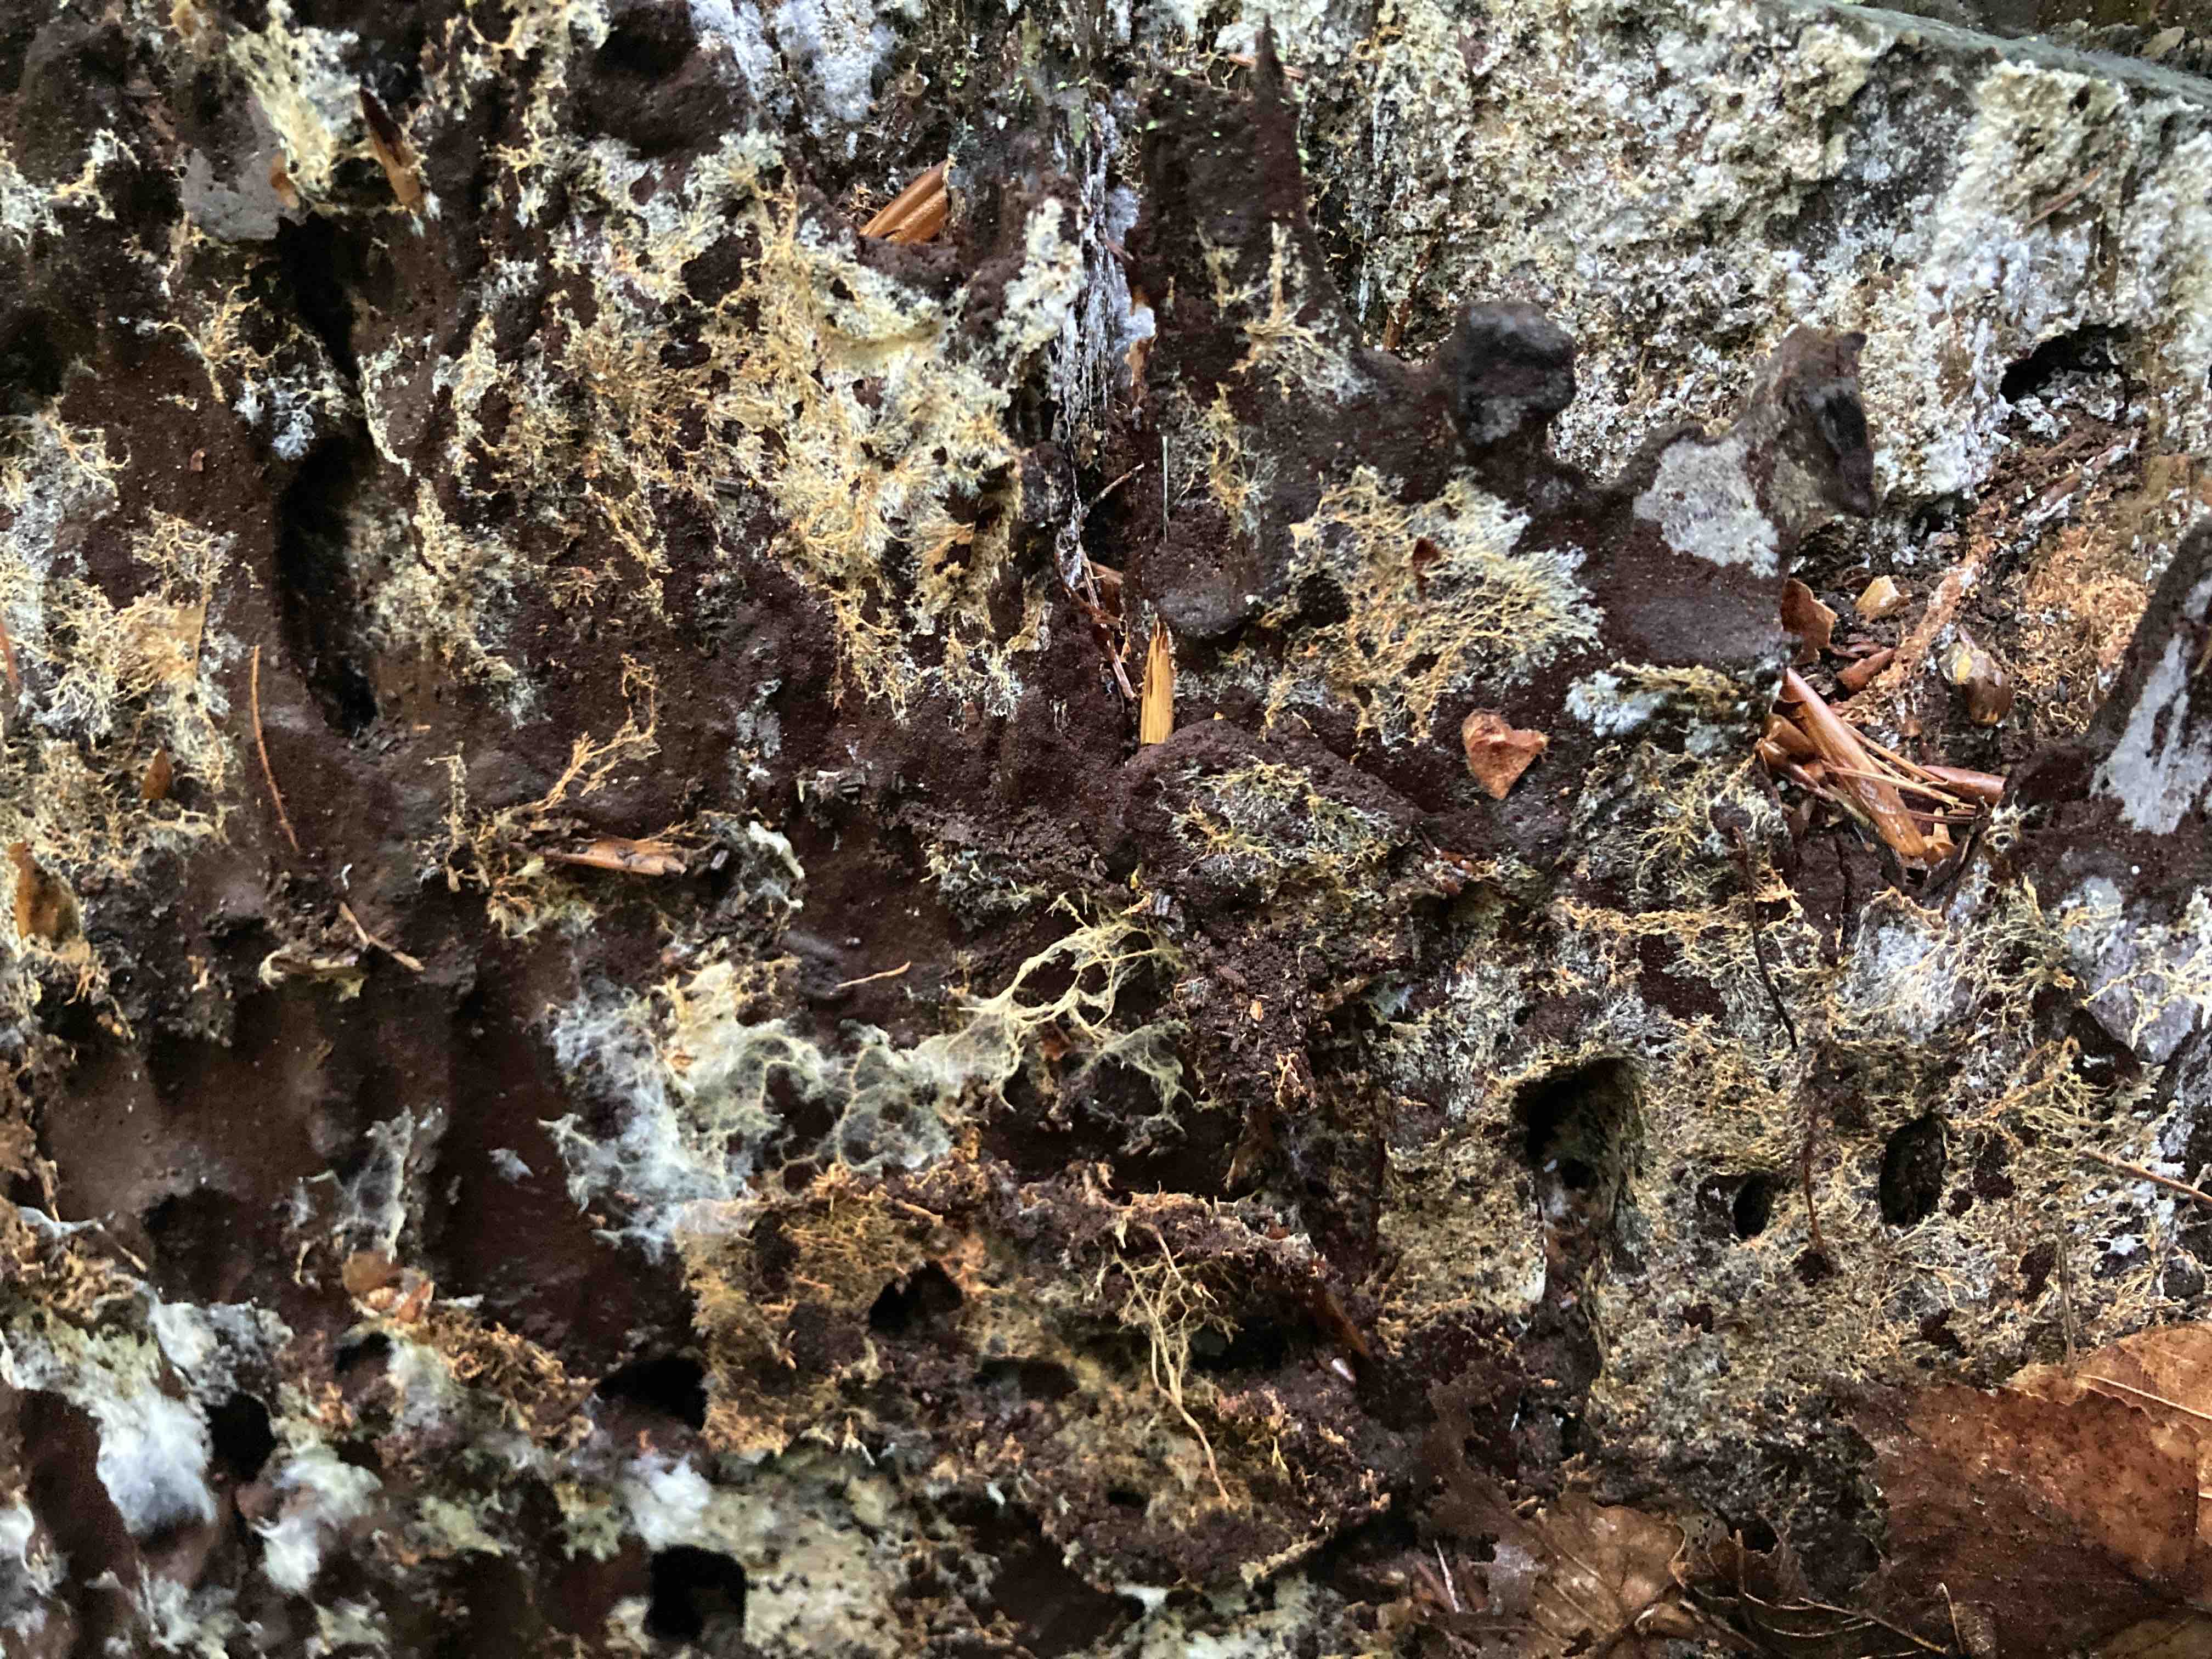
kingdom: Fungi
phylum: Basidiomycota
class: Agaricomycetes
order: Atheliales
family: Atheliaceae
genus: Leptosporomyces
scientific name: Leptosporomyces fuscostratus
